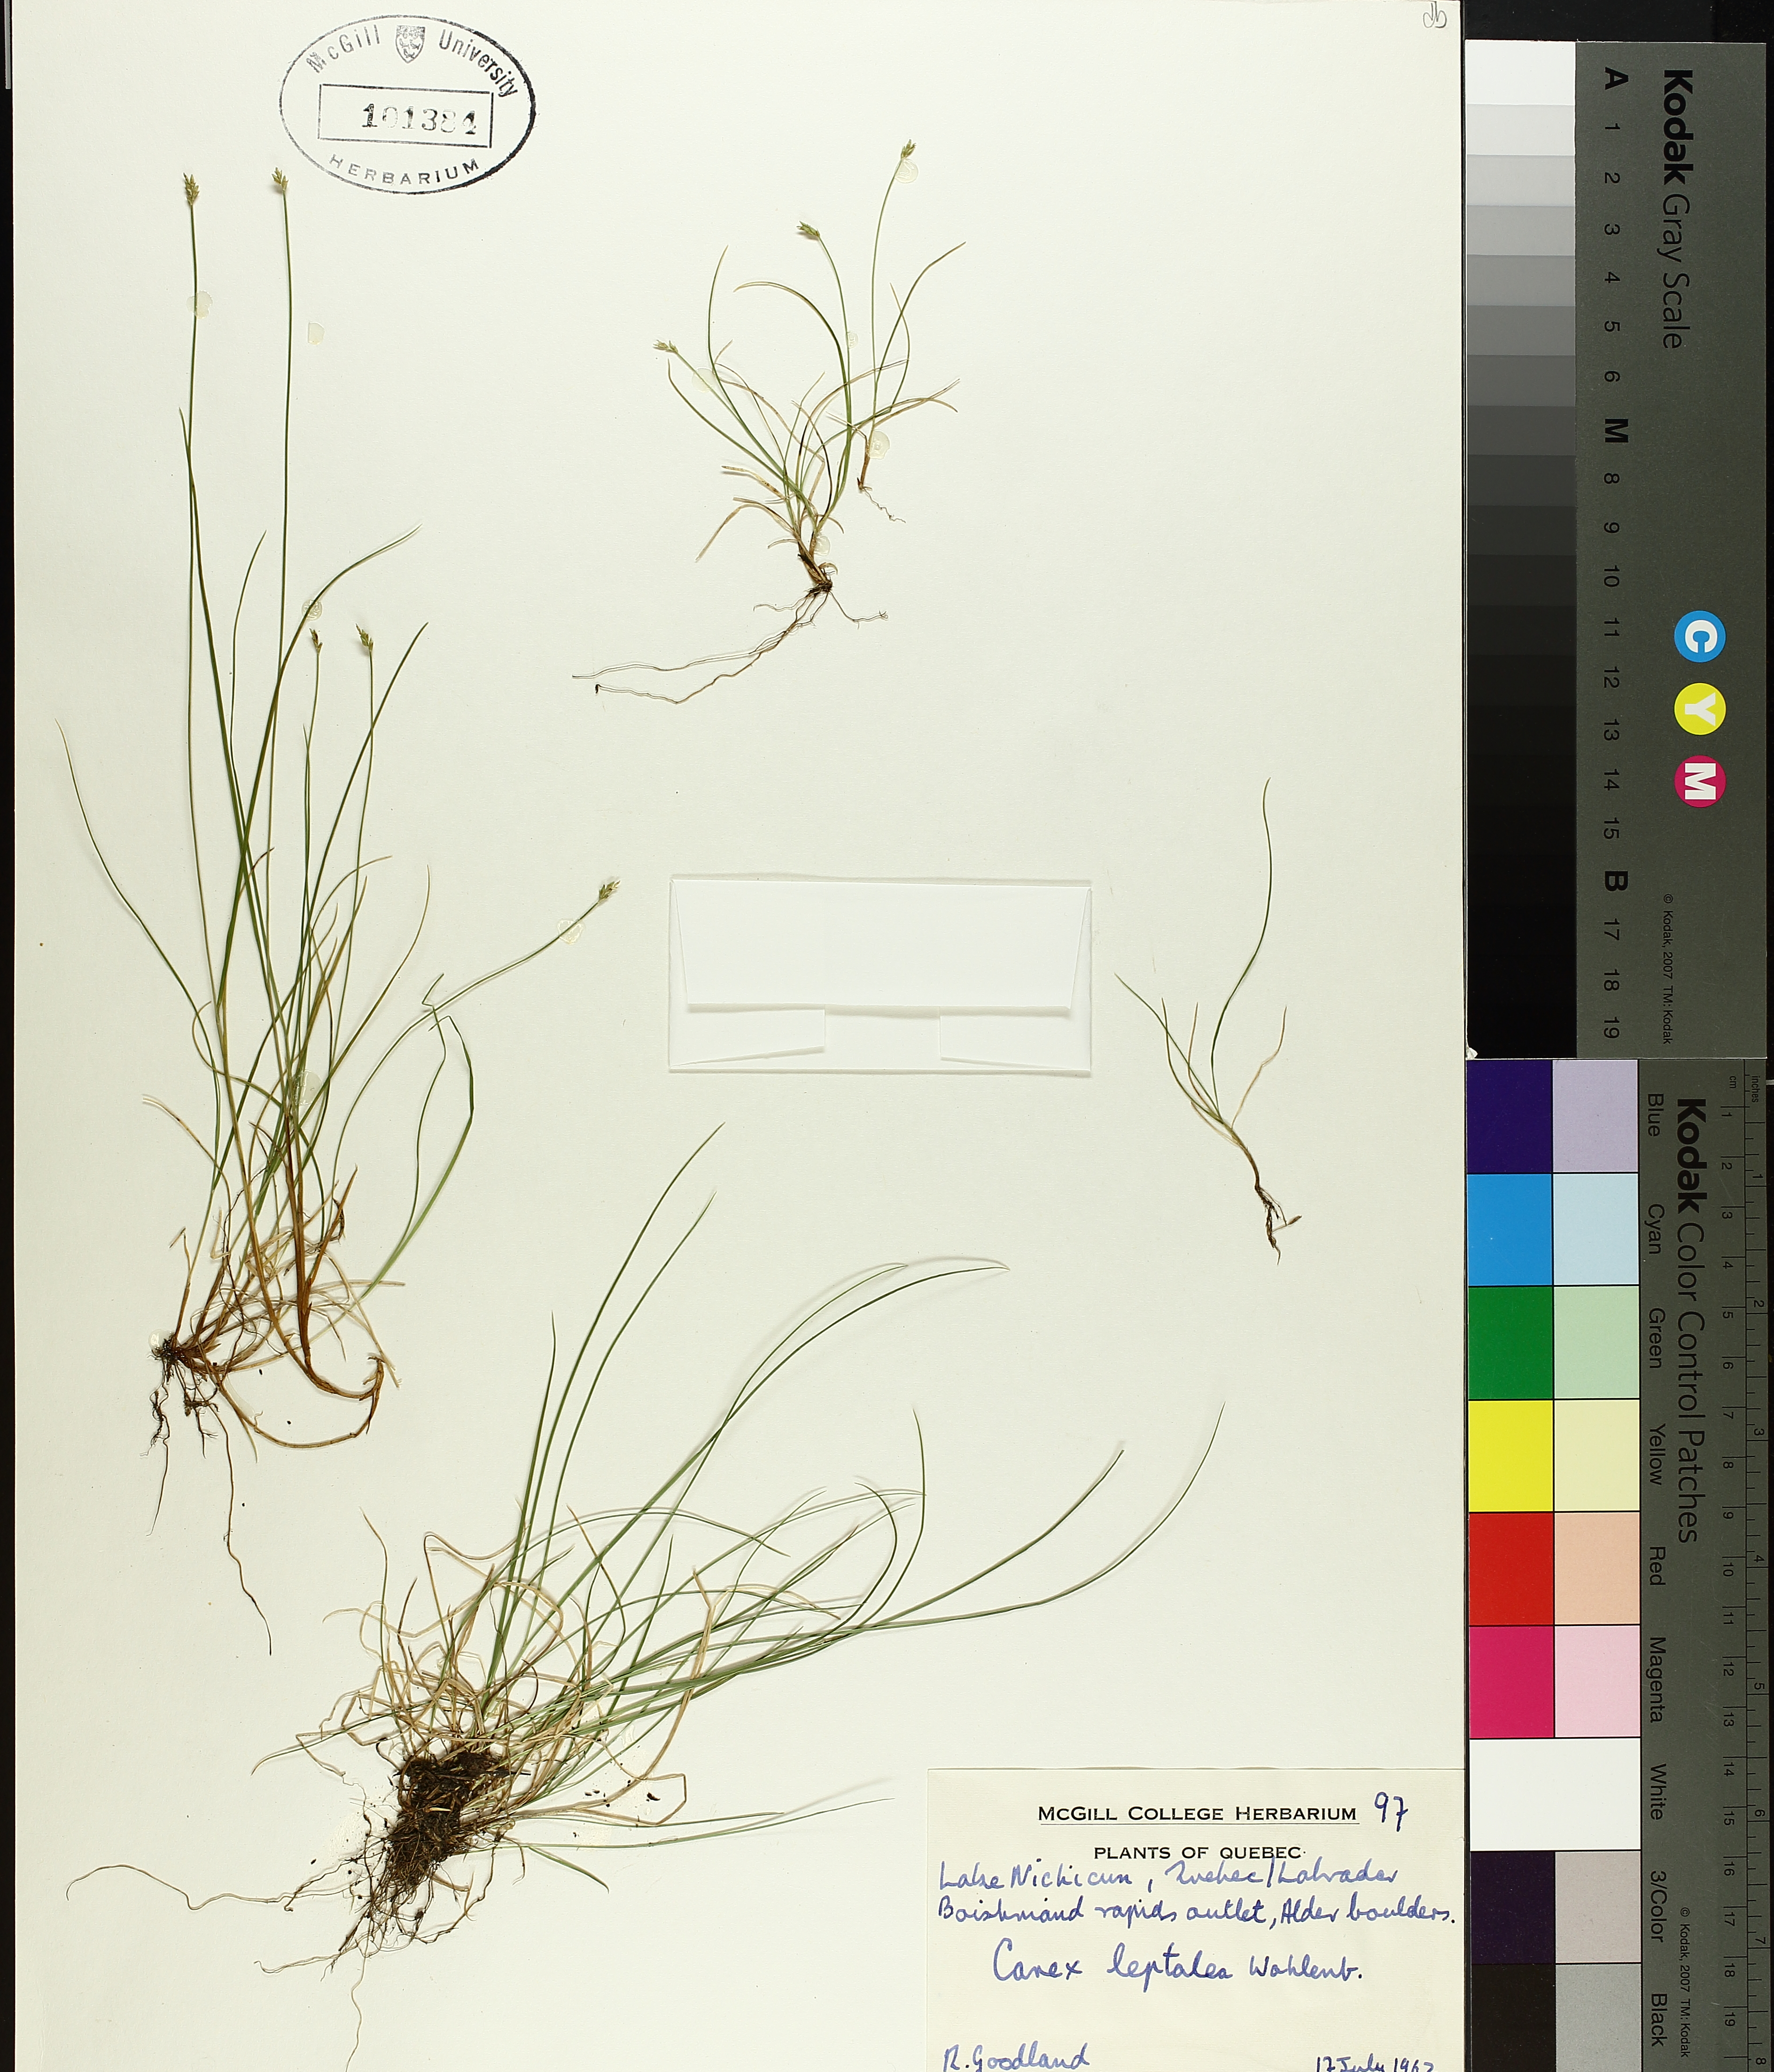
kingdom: Plantae
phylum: Tracheophyta
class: Liliopsida
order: Poales
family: Cyperaceae
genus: Carex
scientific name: Carex leptalea
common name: Bristly-stalked sedge
